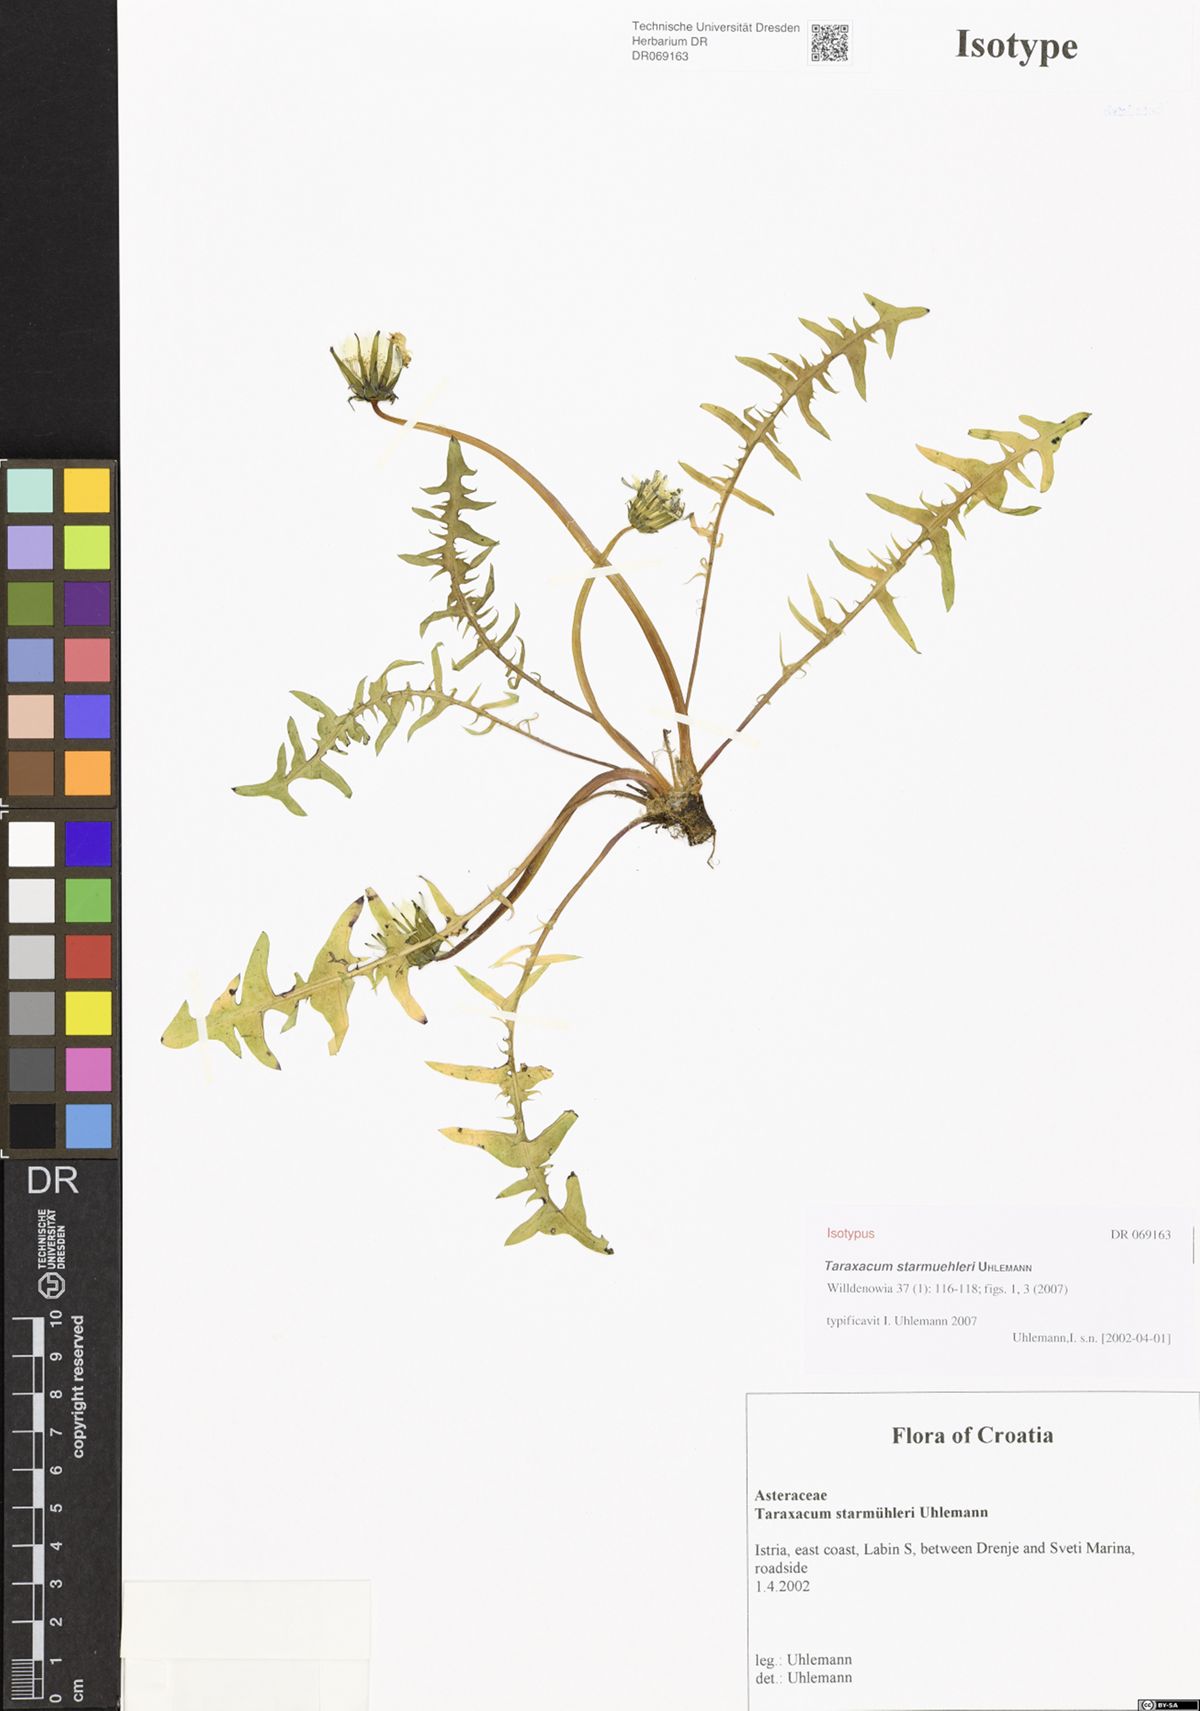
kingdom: Plantae
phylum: Tracheophyta
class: Magnoliopsida
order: Asterales
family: Asteraceae
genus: Taraxacum
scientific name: Taraxacum starmuehleri
